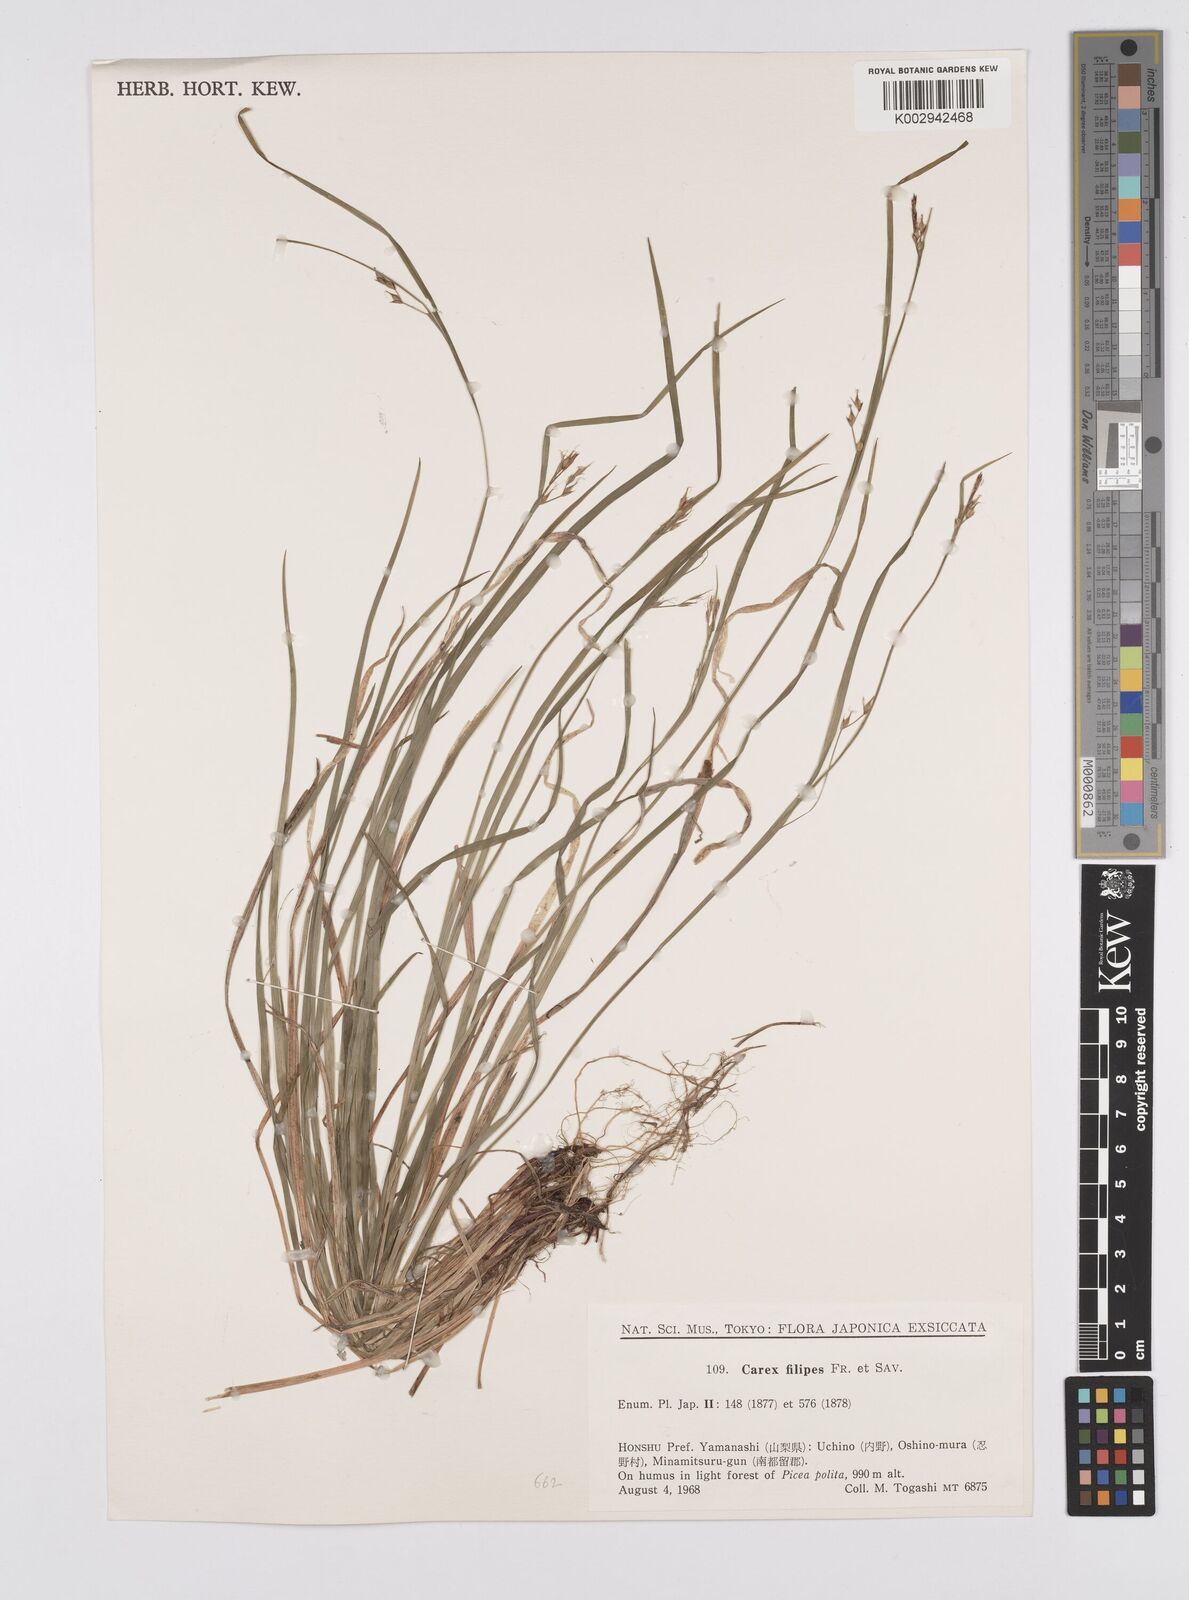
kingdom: Plantae
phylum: Tracheophyta
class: Liliopsida
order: Poales
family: Cyperaceae
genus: Carex
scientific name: Carex filipes
